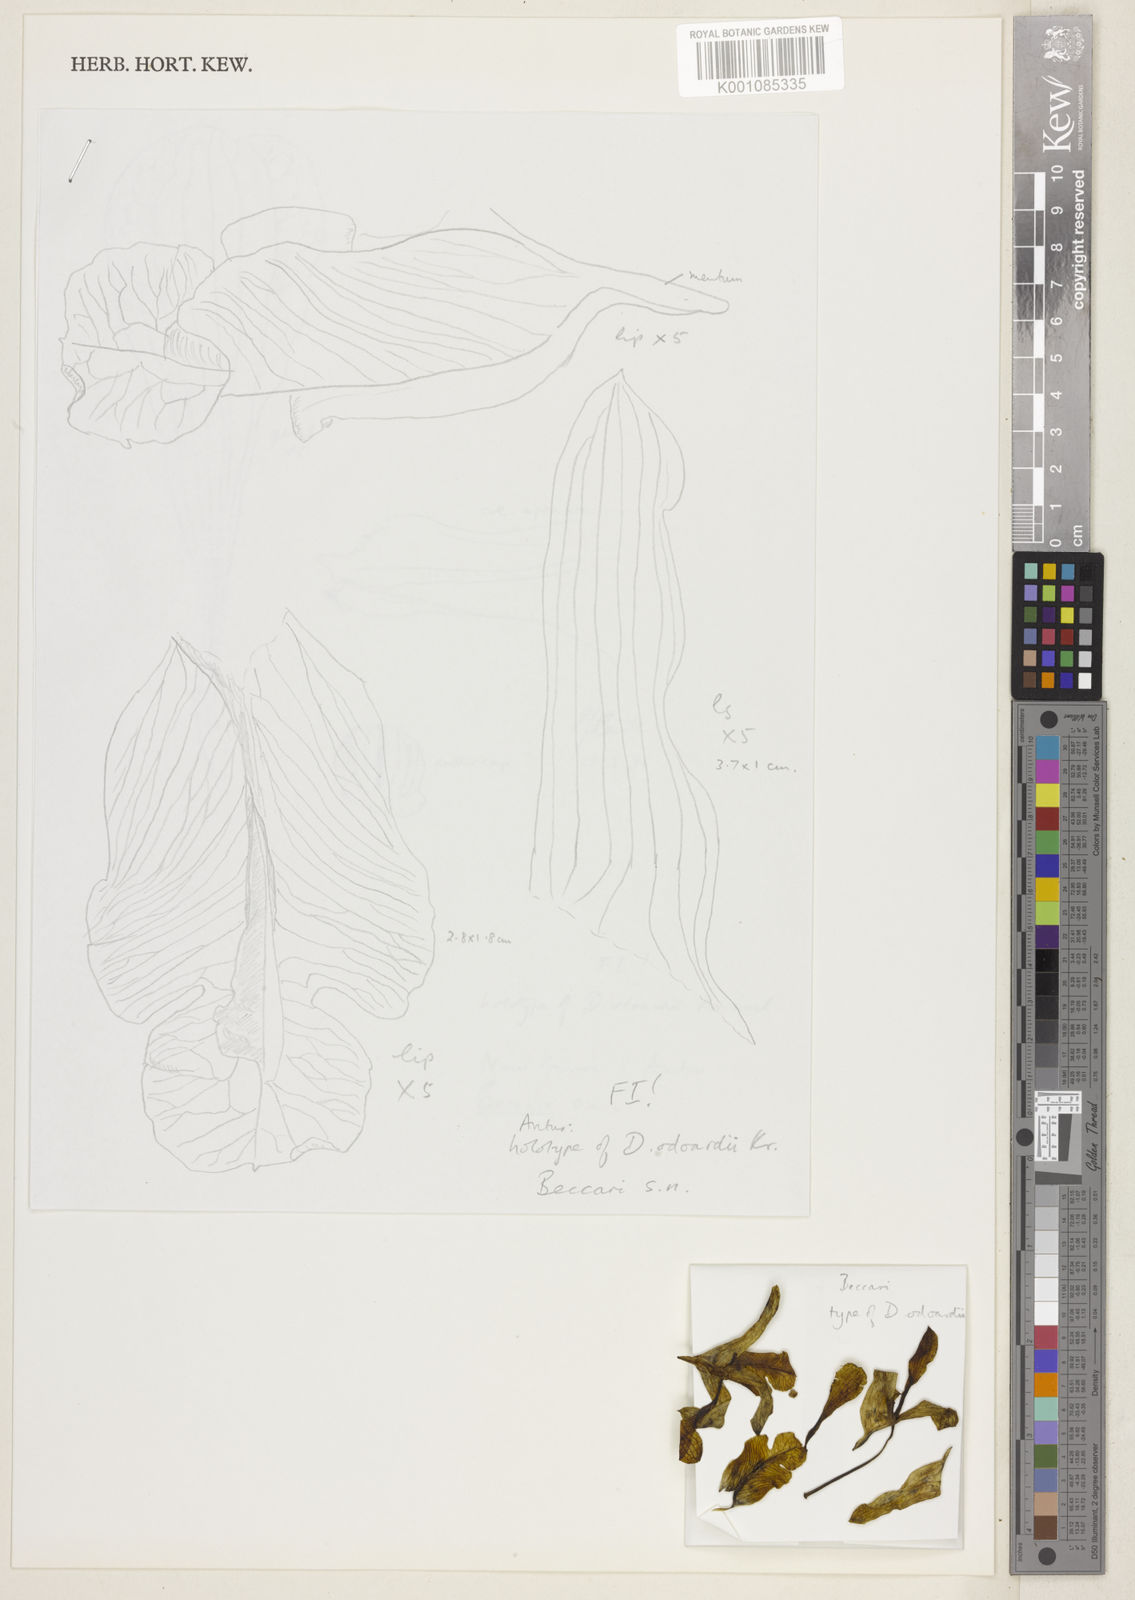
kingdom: Plantae
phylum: Tracheophyta
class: Liliopsida
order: Asparagales
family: Orchidaceae
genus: Dendrobium
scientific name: Dendrobium odoardi
